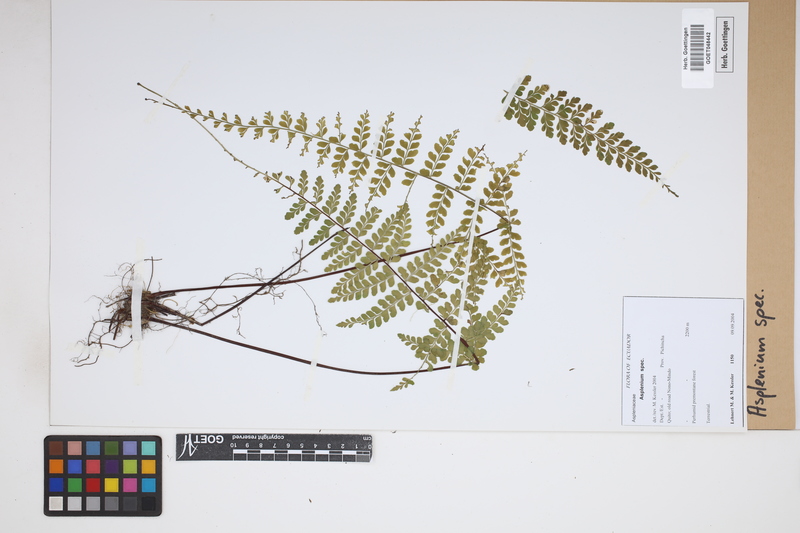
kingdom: Plantae
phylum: Tracheophyta
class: Polypodiopsida
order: Polypodiales
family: Aspleniaceae
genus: Asplenium
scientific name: Asplenium
